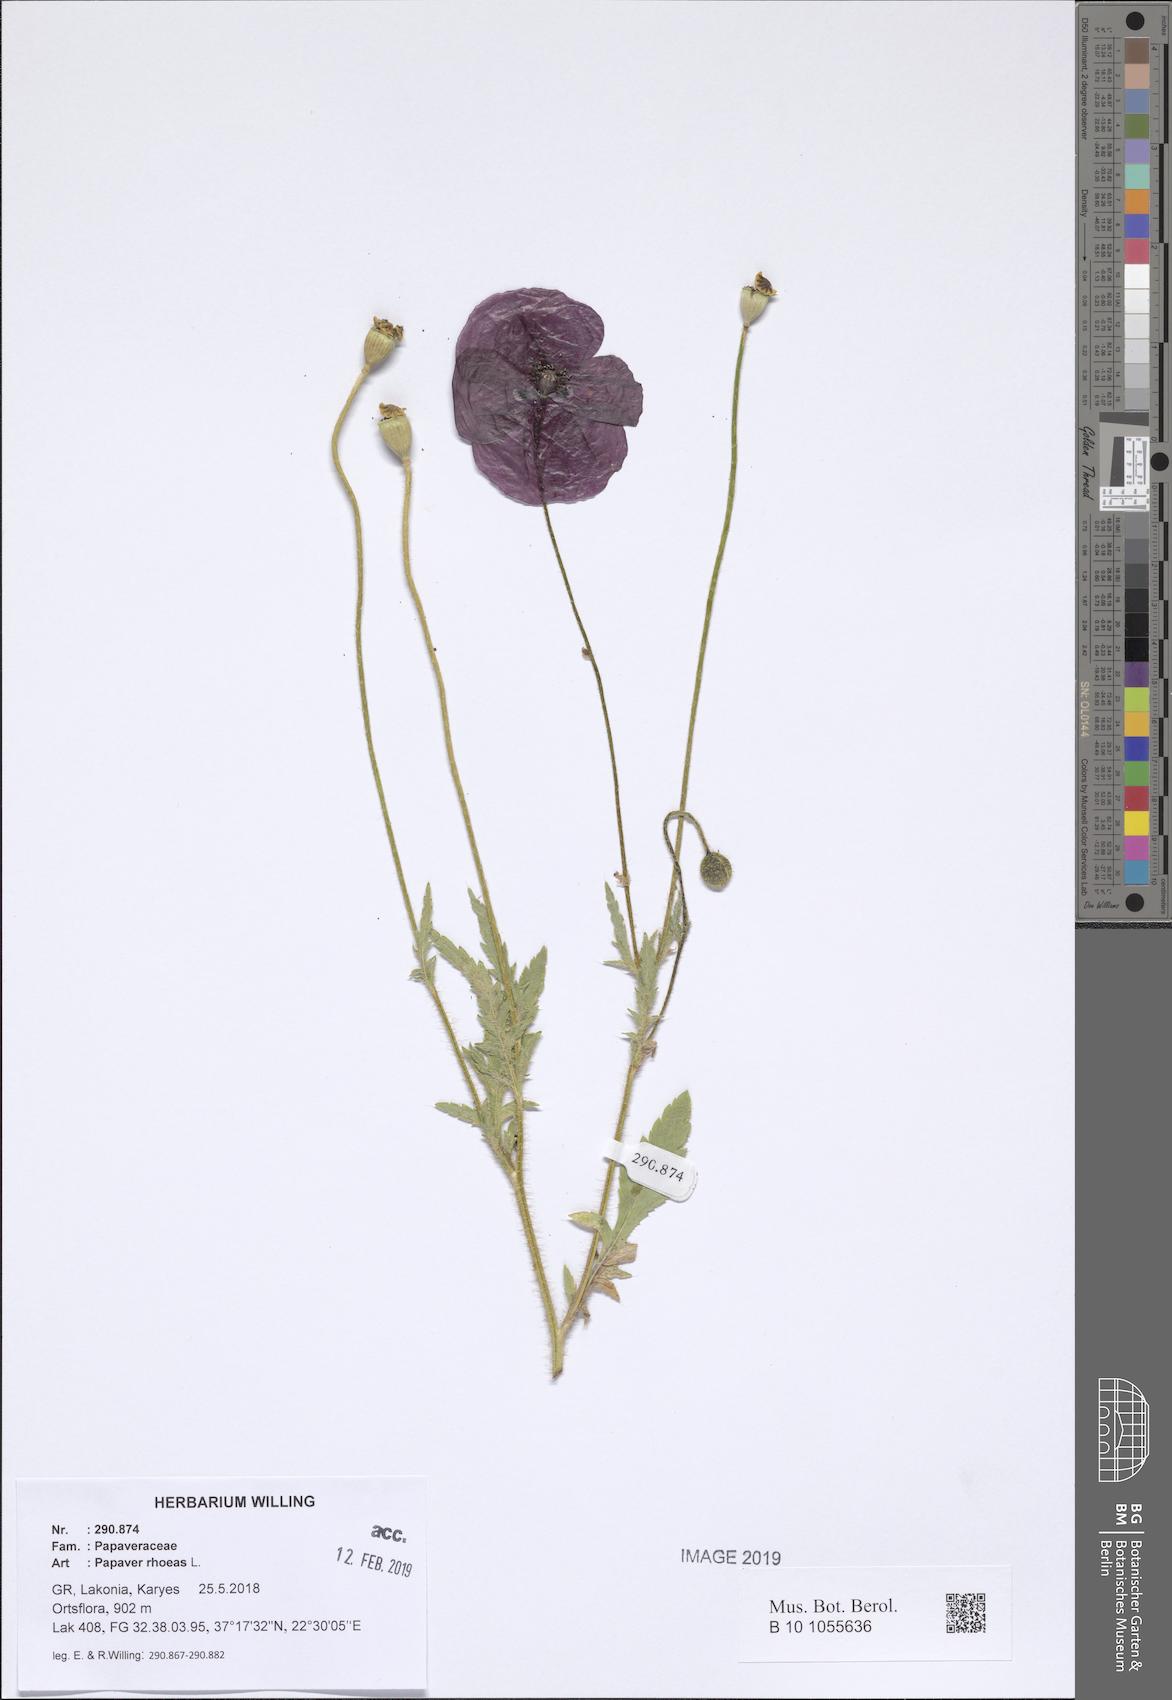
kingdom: Plantae
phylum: Tracheophyta
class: Magnoliopsida
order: Ranunculales
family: Papaveraceae
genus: Papaver
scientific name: Papaver rhoeas
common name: Corn poppy
